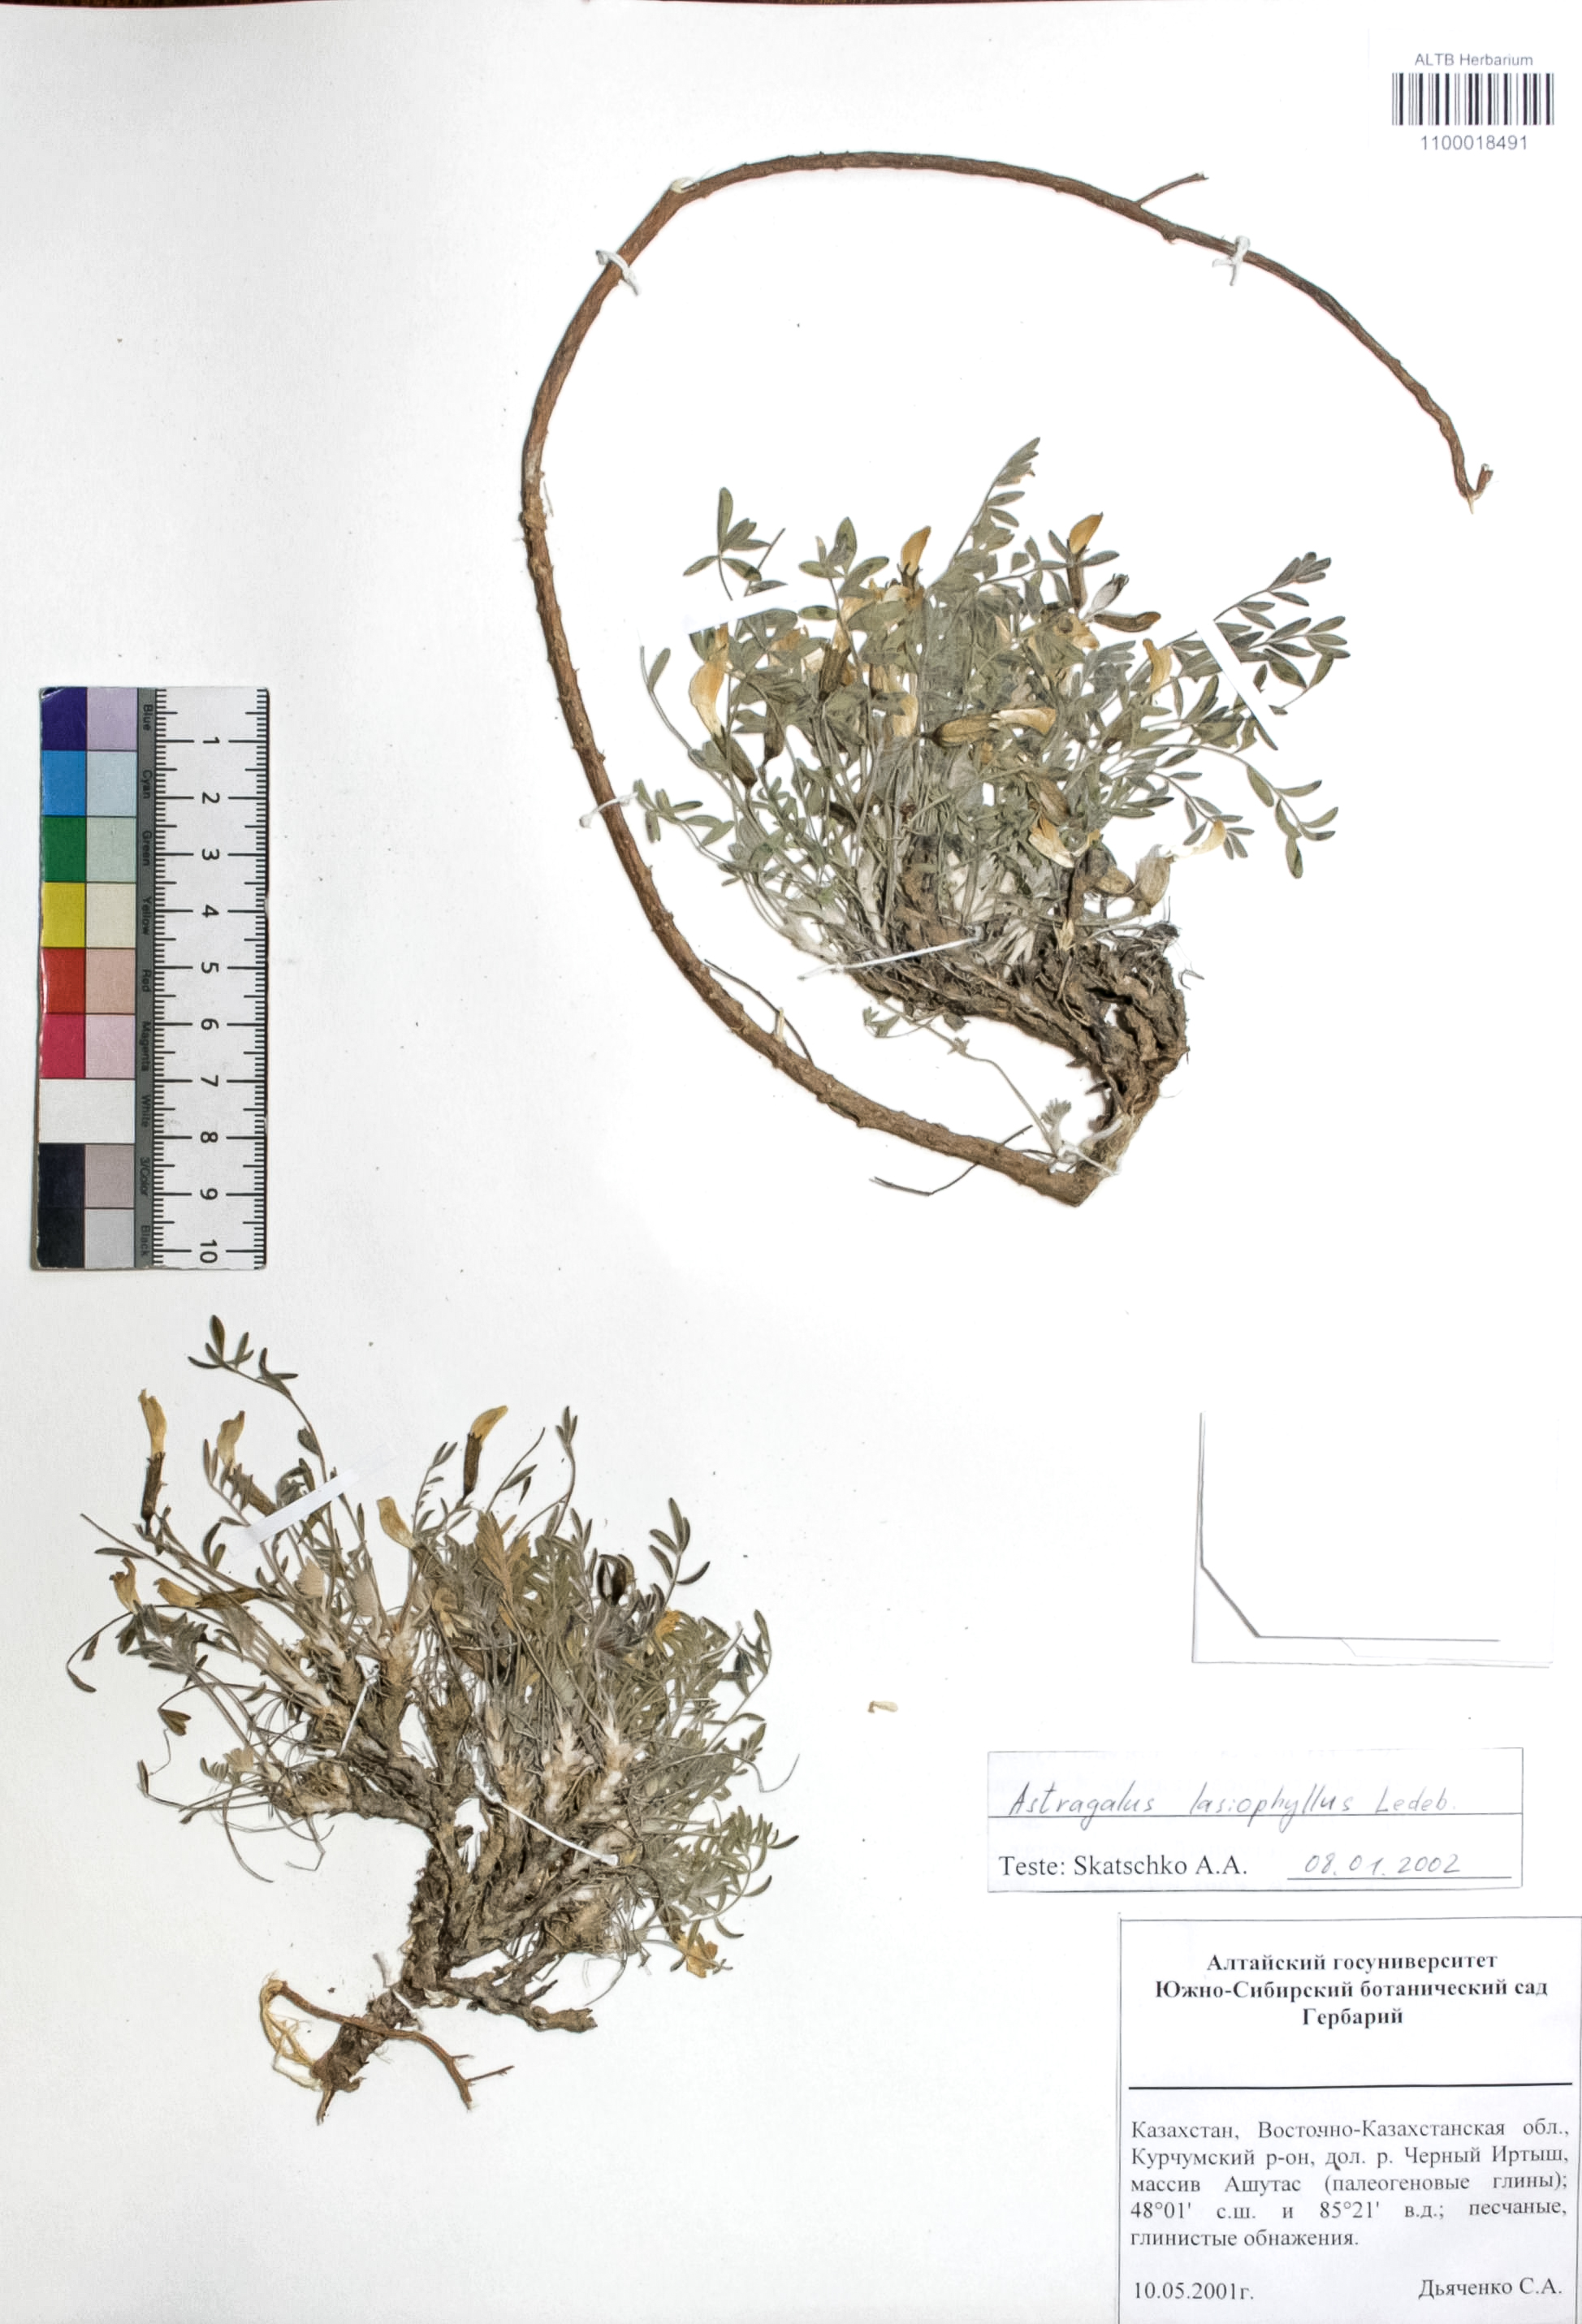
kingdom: Plantae
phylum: Tracheophyta
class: Magnoliopsida
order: Fabales
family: Fabaceae
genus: Astragalus
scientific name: Astragalus pallasii
